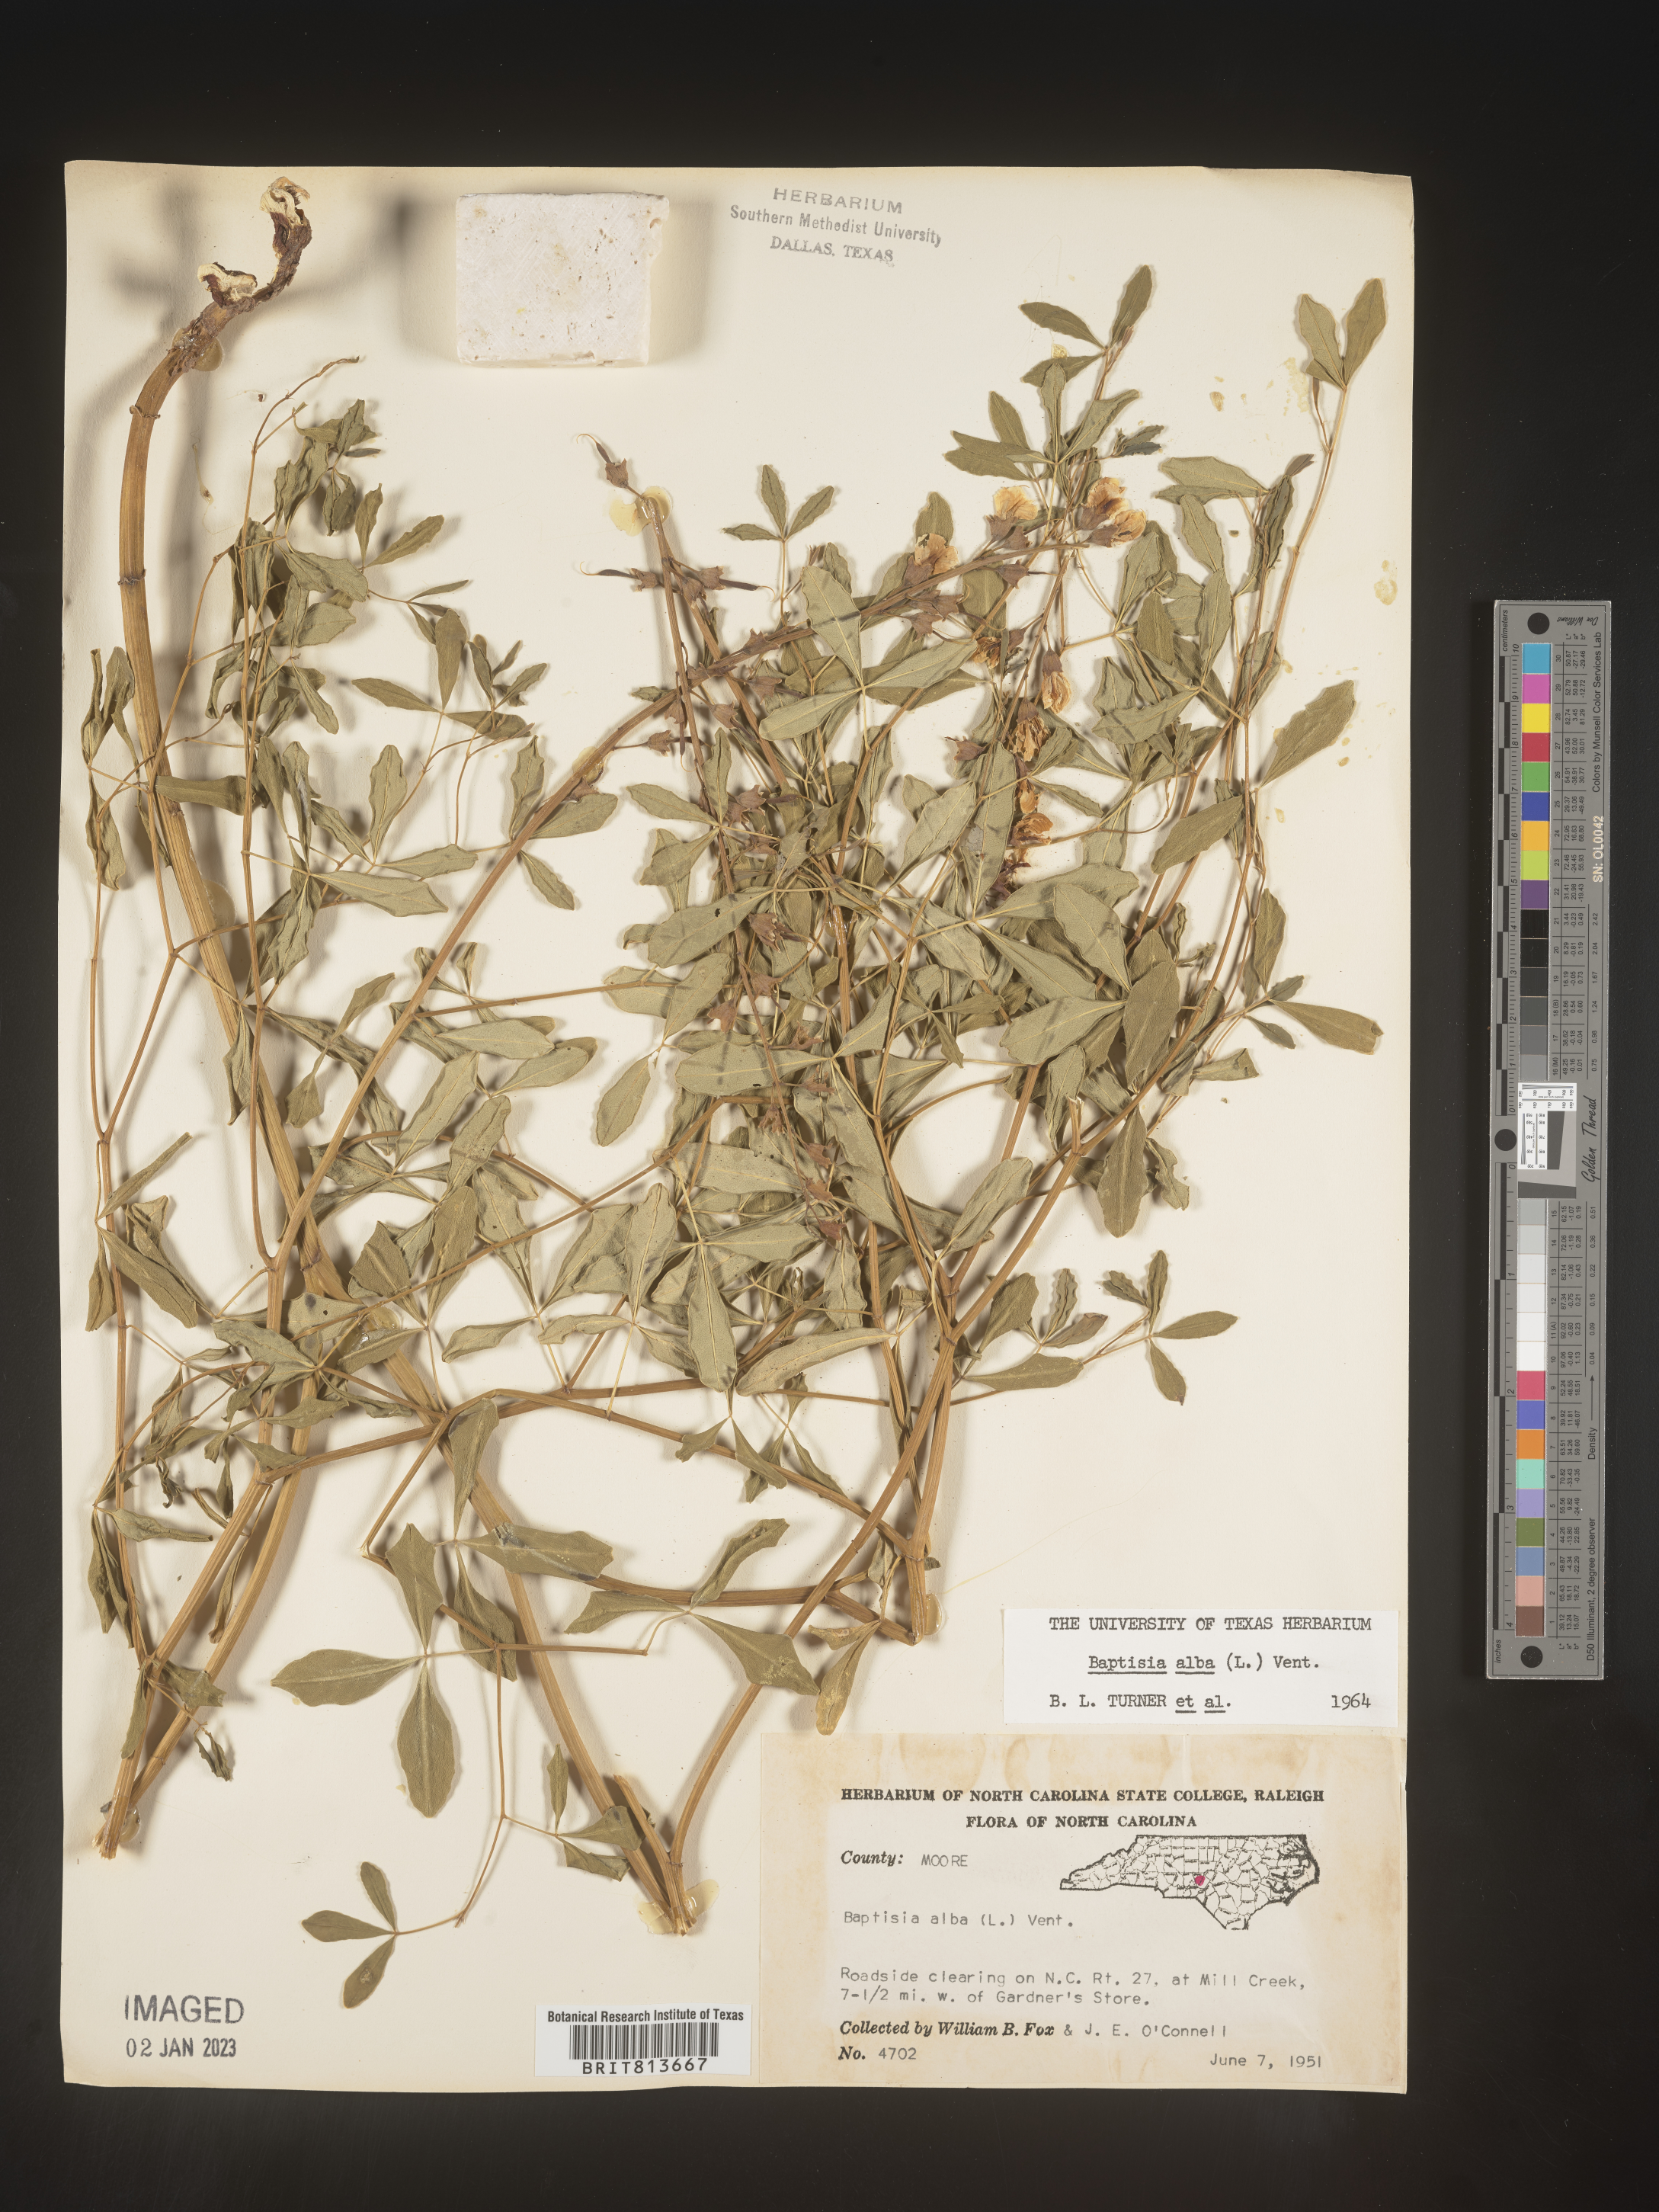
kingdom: Plantae
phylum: Tracheophyta
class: Magnoliopsida
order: Fabales
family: Fabaceae
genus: Baptisia
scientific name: Baptisia alba
